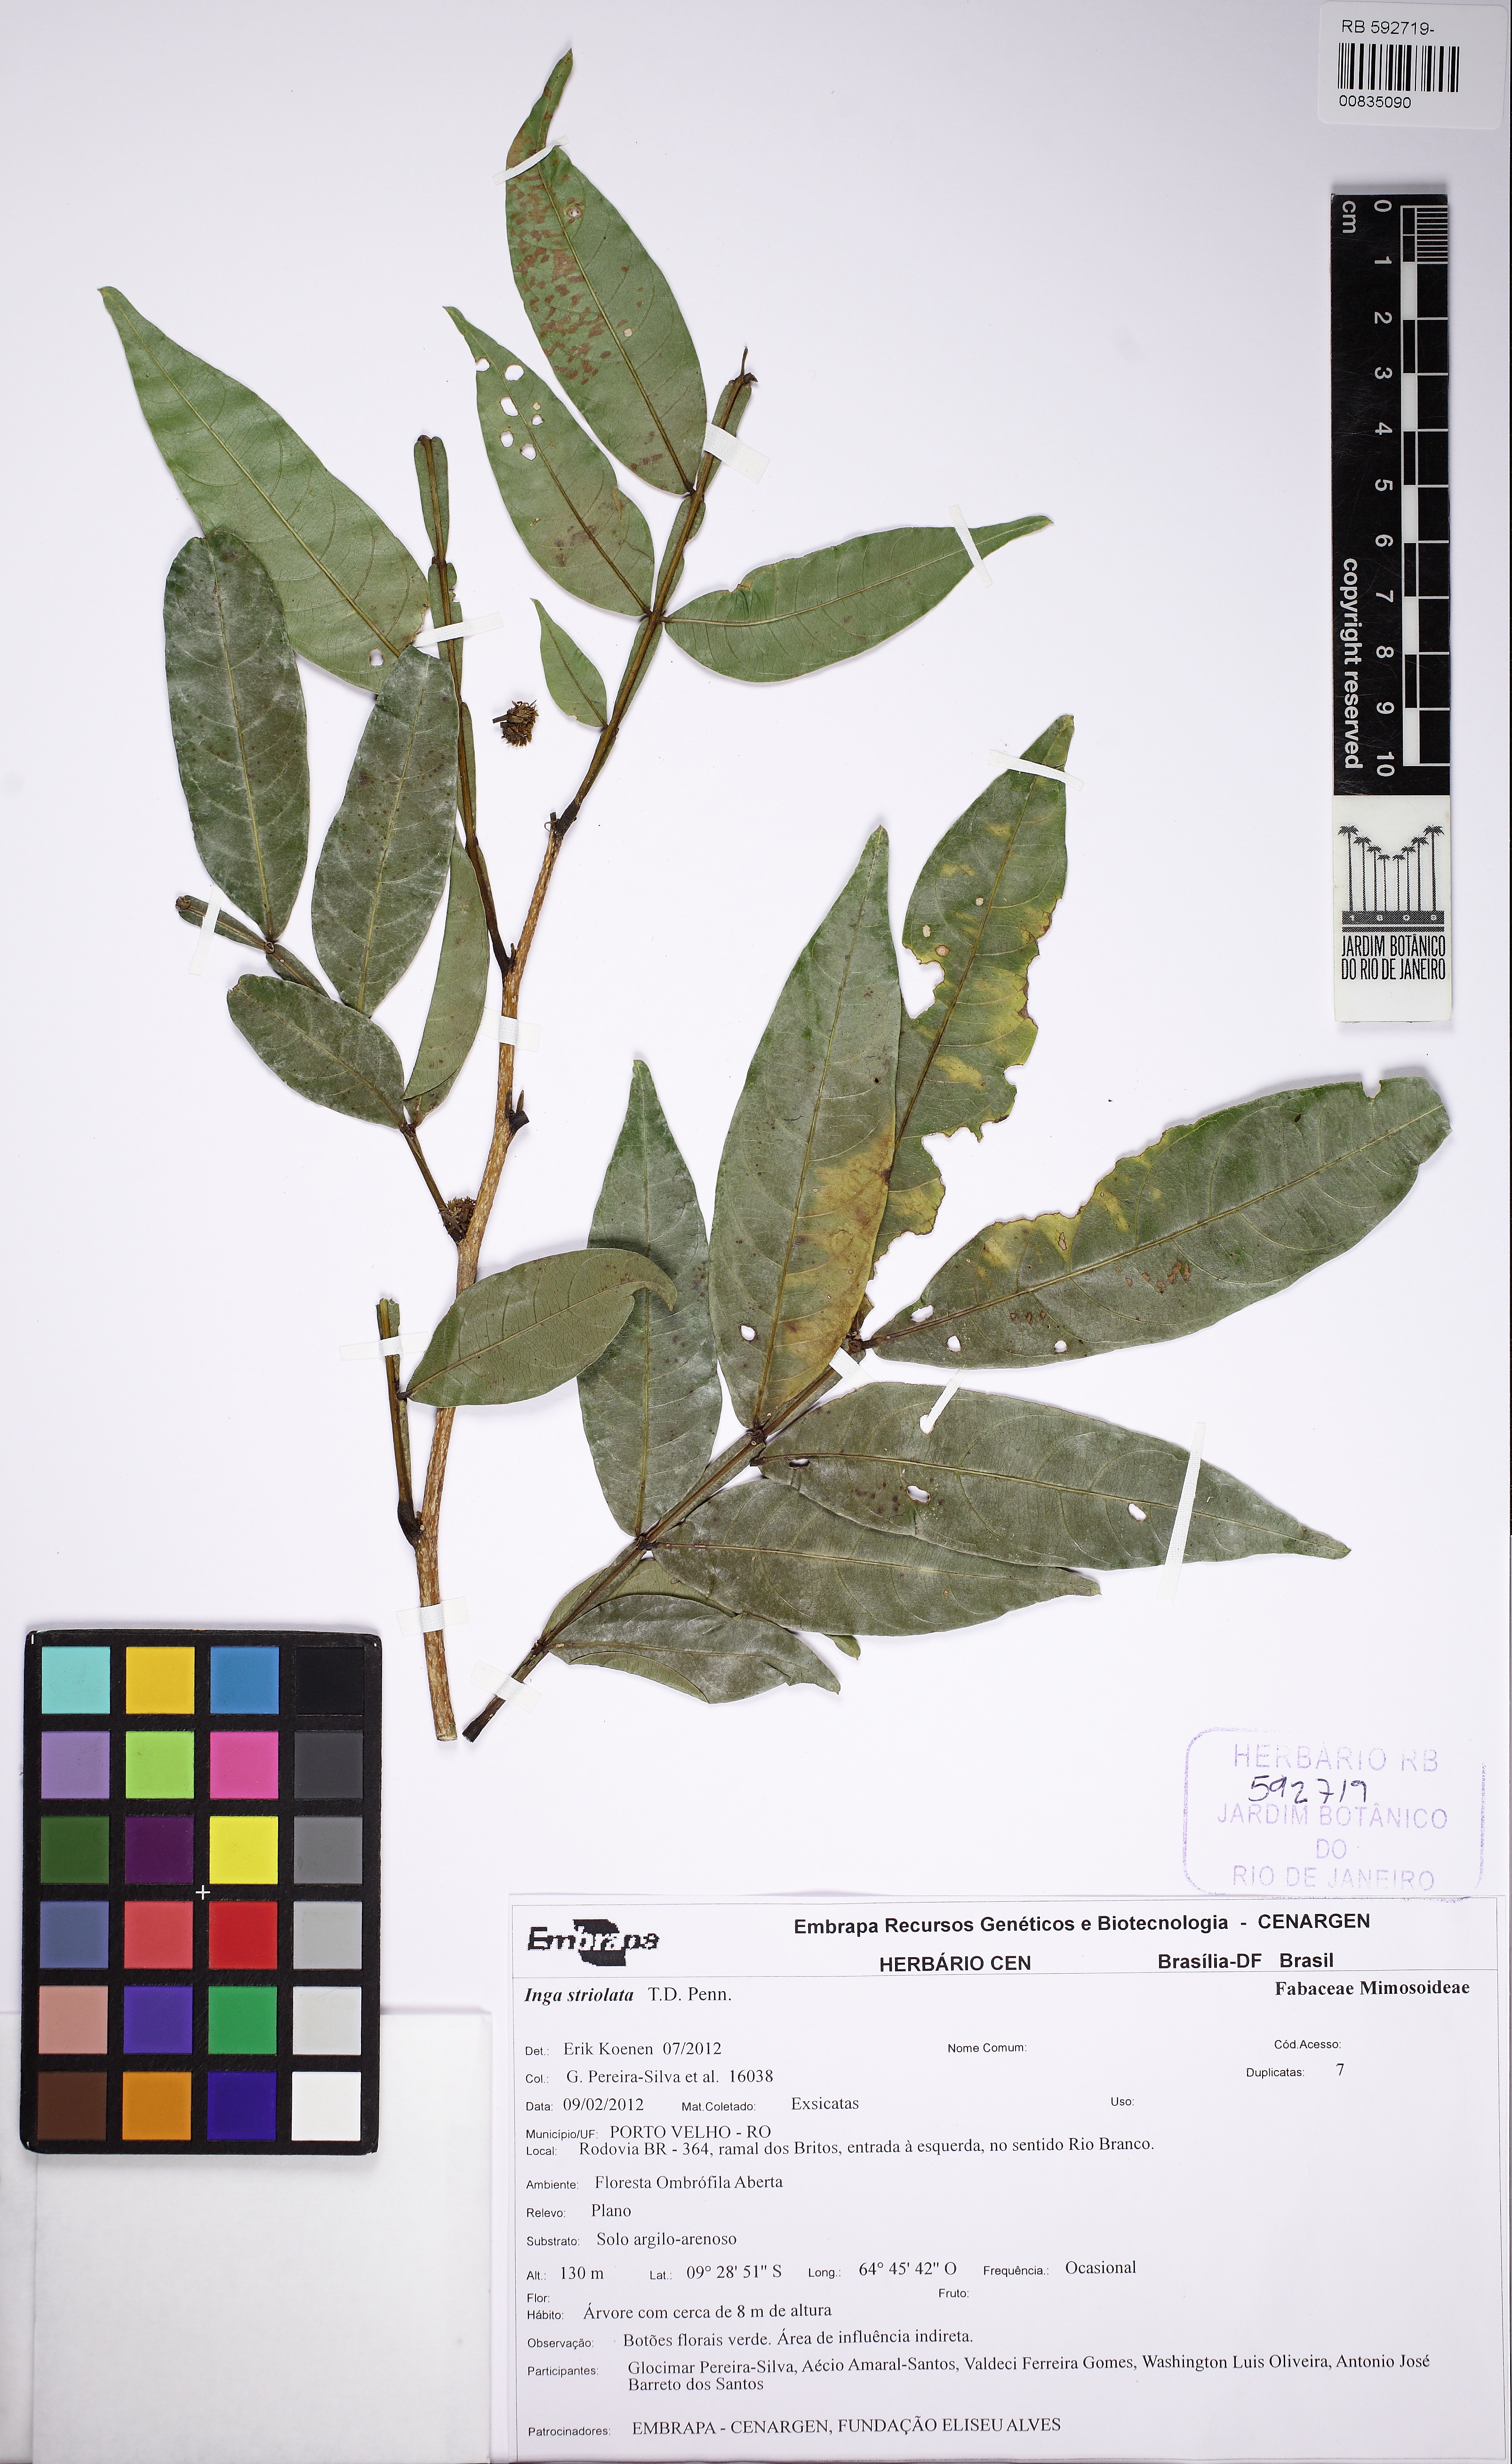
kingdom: Plantae
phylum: Tracheophyta
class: Magnoliopsida
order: Fabales
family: Fabaceae
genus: Inga
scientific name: Inga striolata
